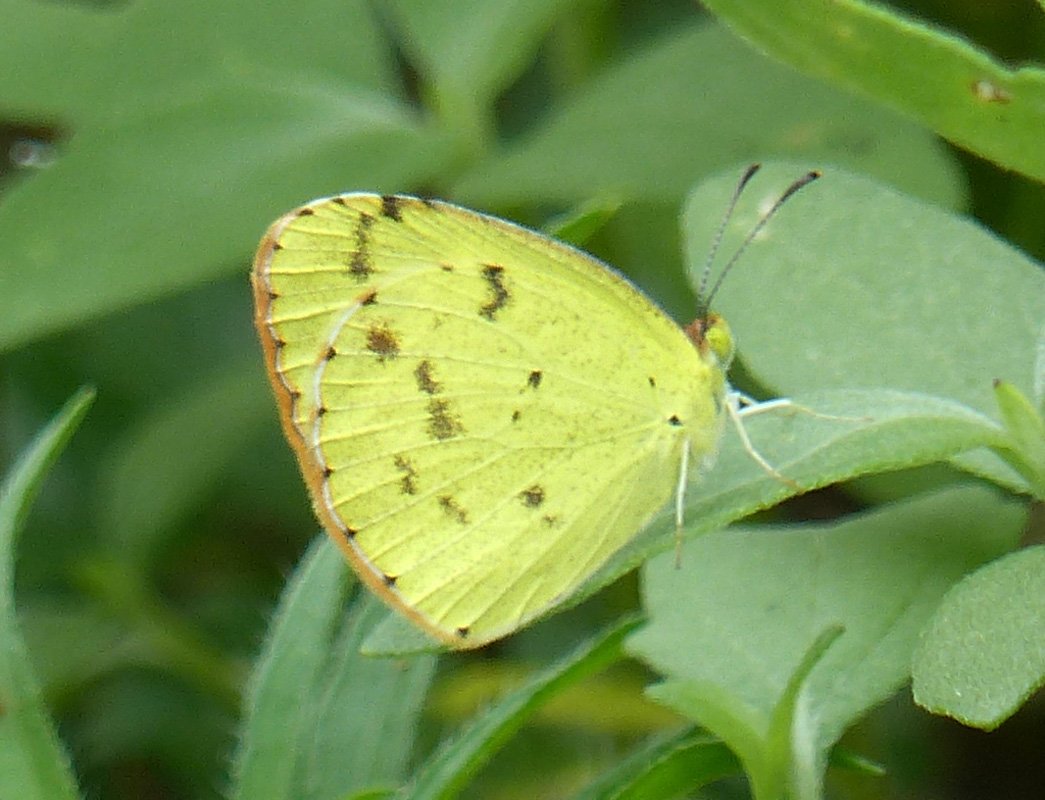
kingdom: Animalia
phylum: Arthropoda
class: Insecta
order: Lepidoptera
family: Pieridae
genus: Pyrisitia
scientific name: Pyrisitia lisa
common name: Little Yellow
